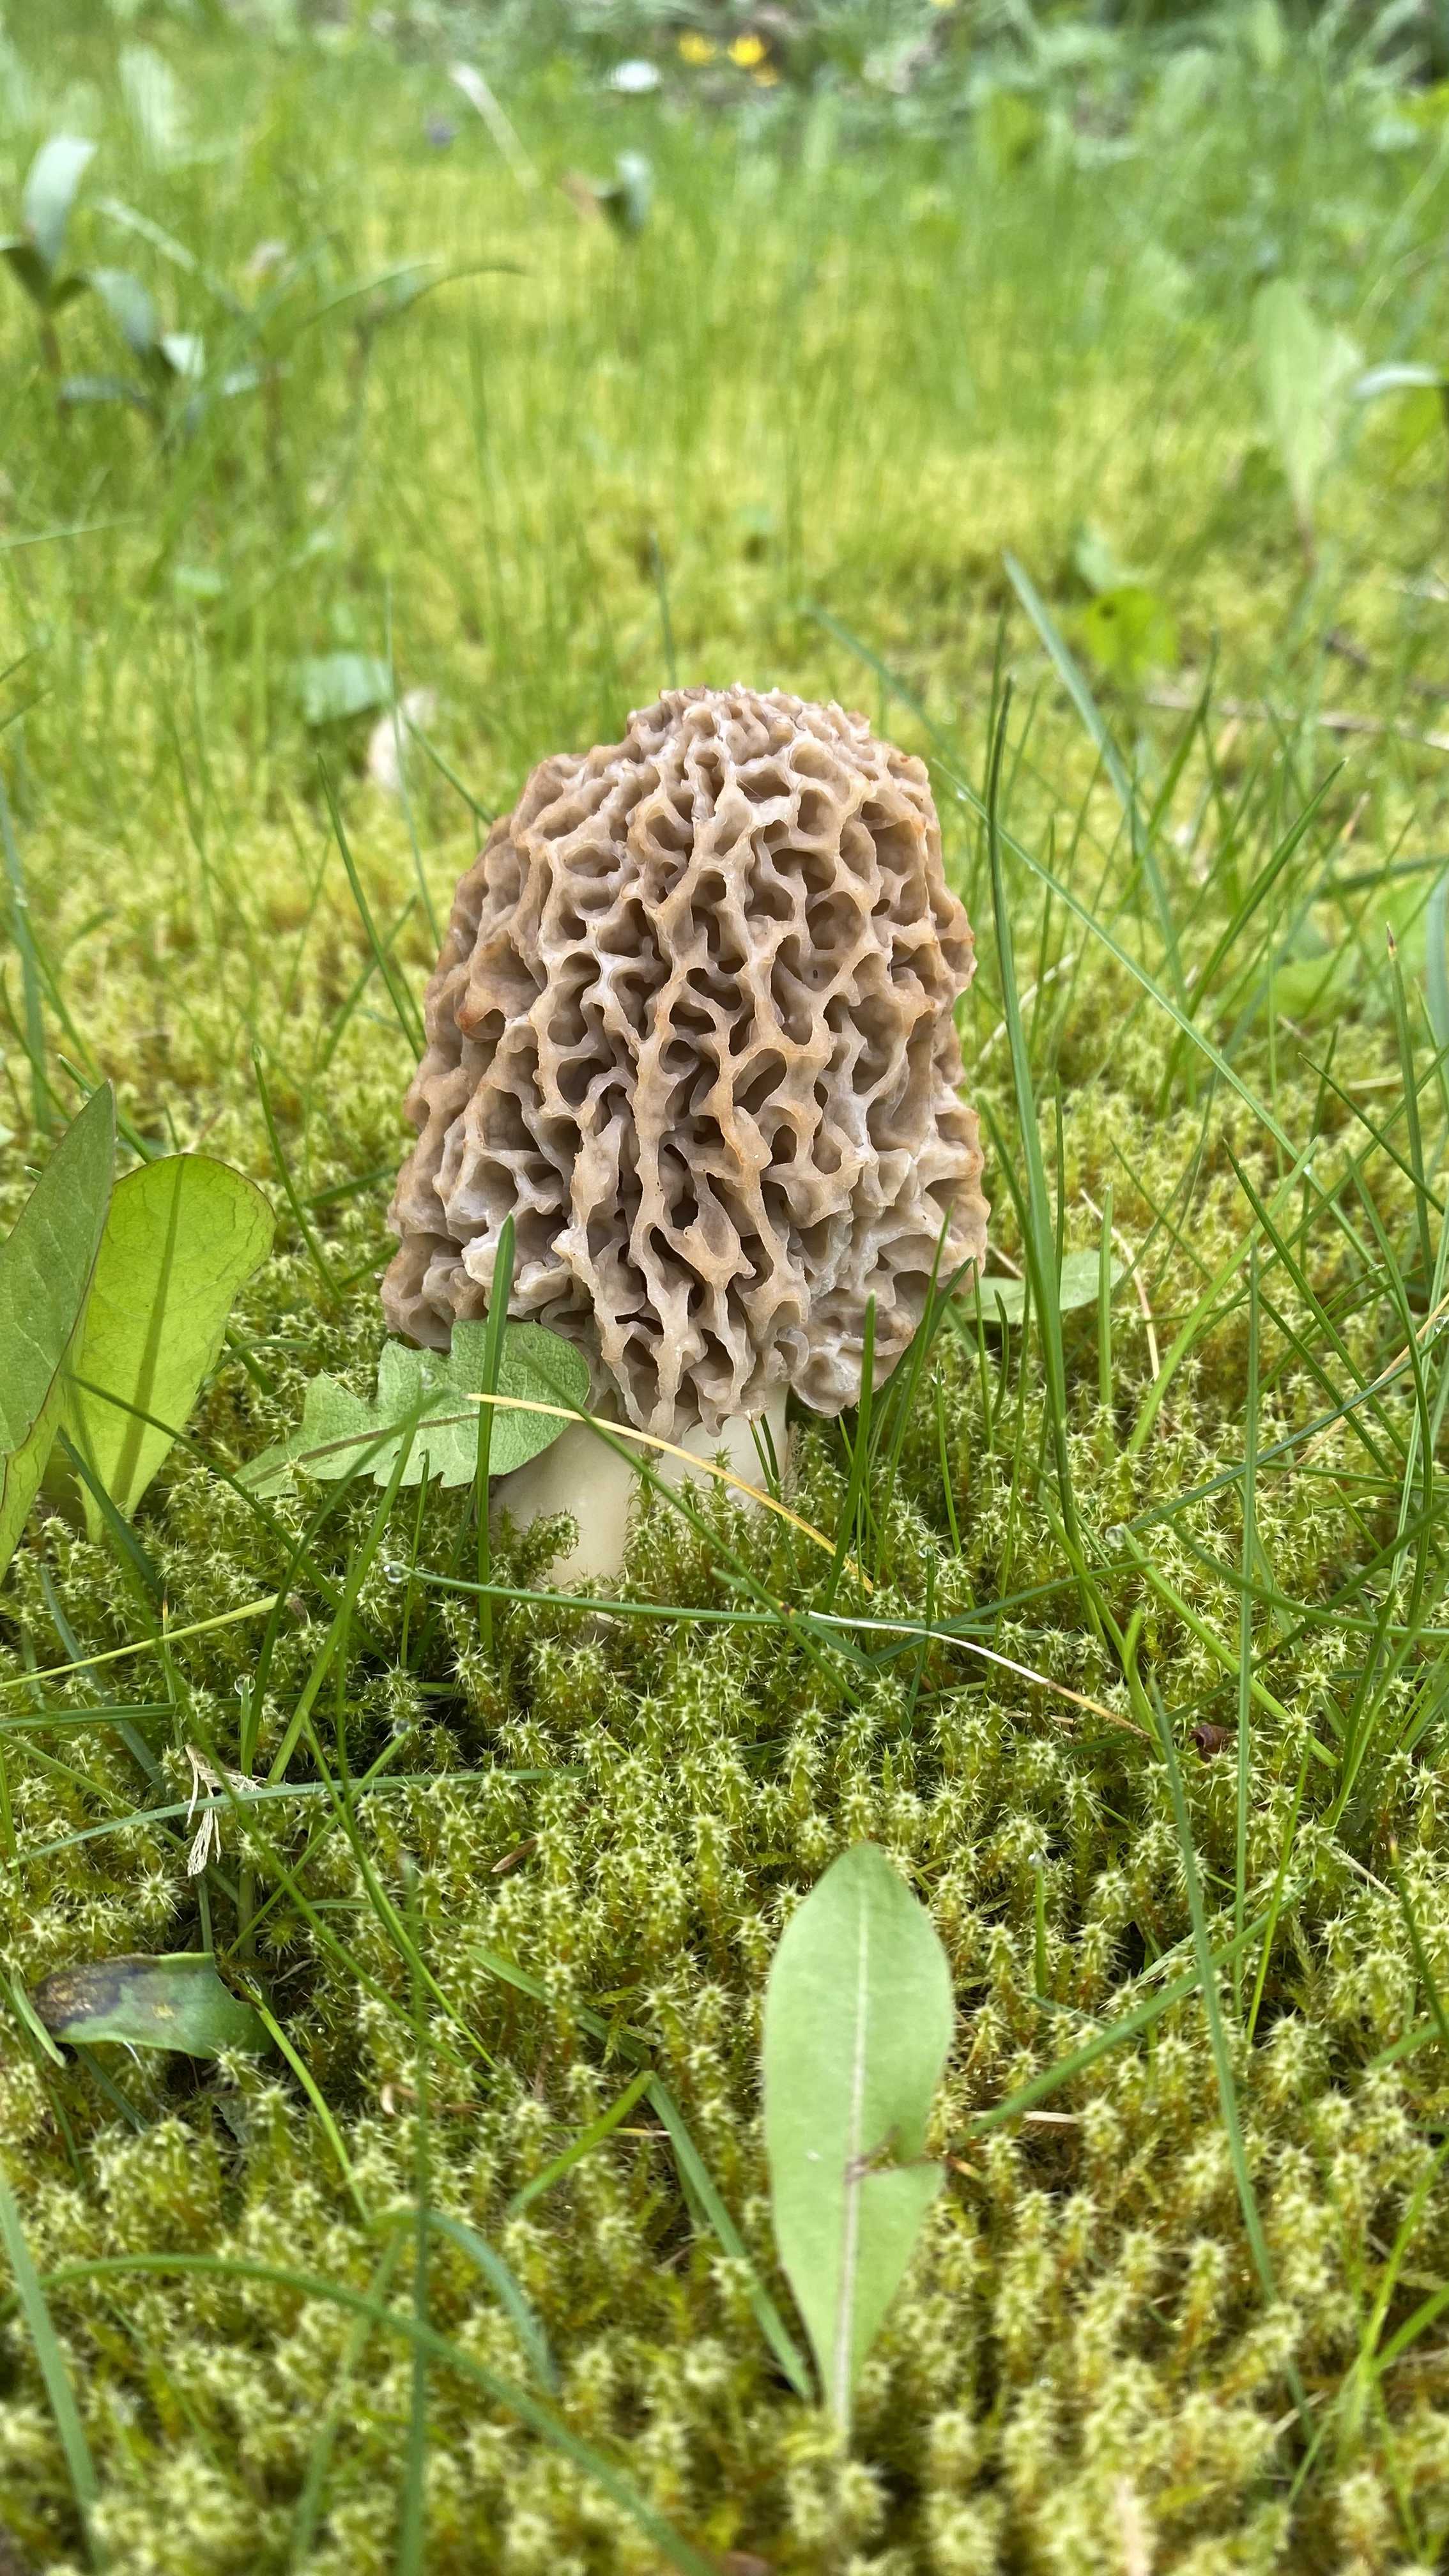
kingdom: Fungi
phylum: Ascomycota
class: Pezizomycetes
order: Pezizales
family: Morchellaceae
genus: Morchella
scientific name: Morchella esculenta
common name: almindelig morkel
